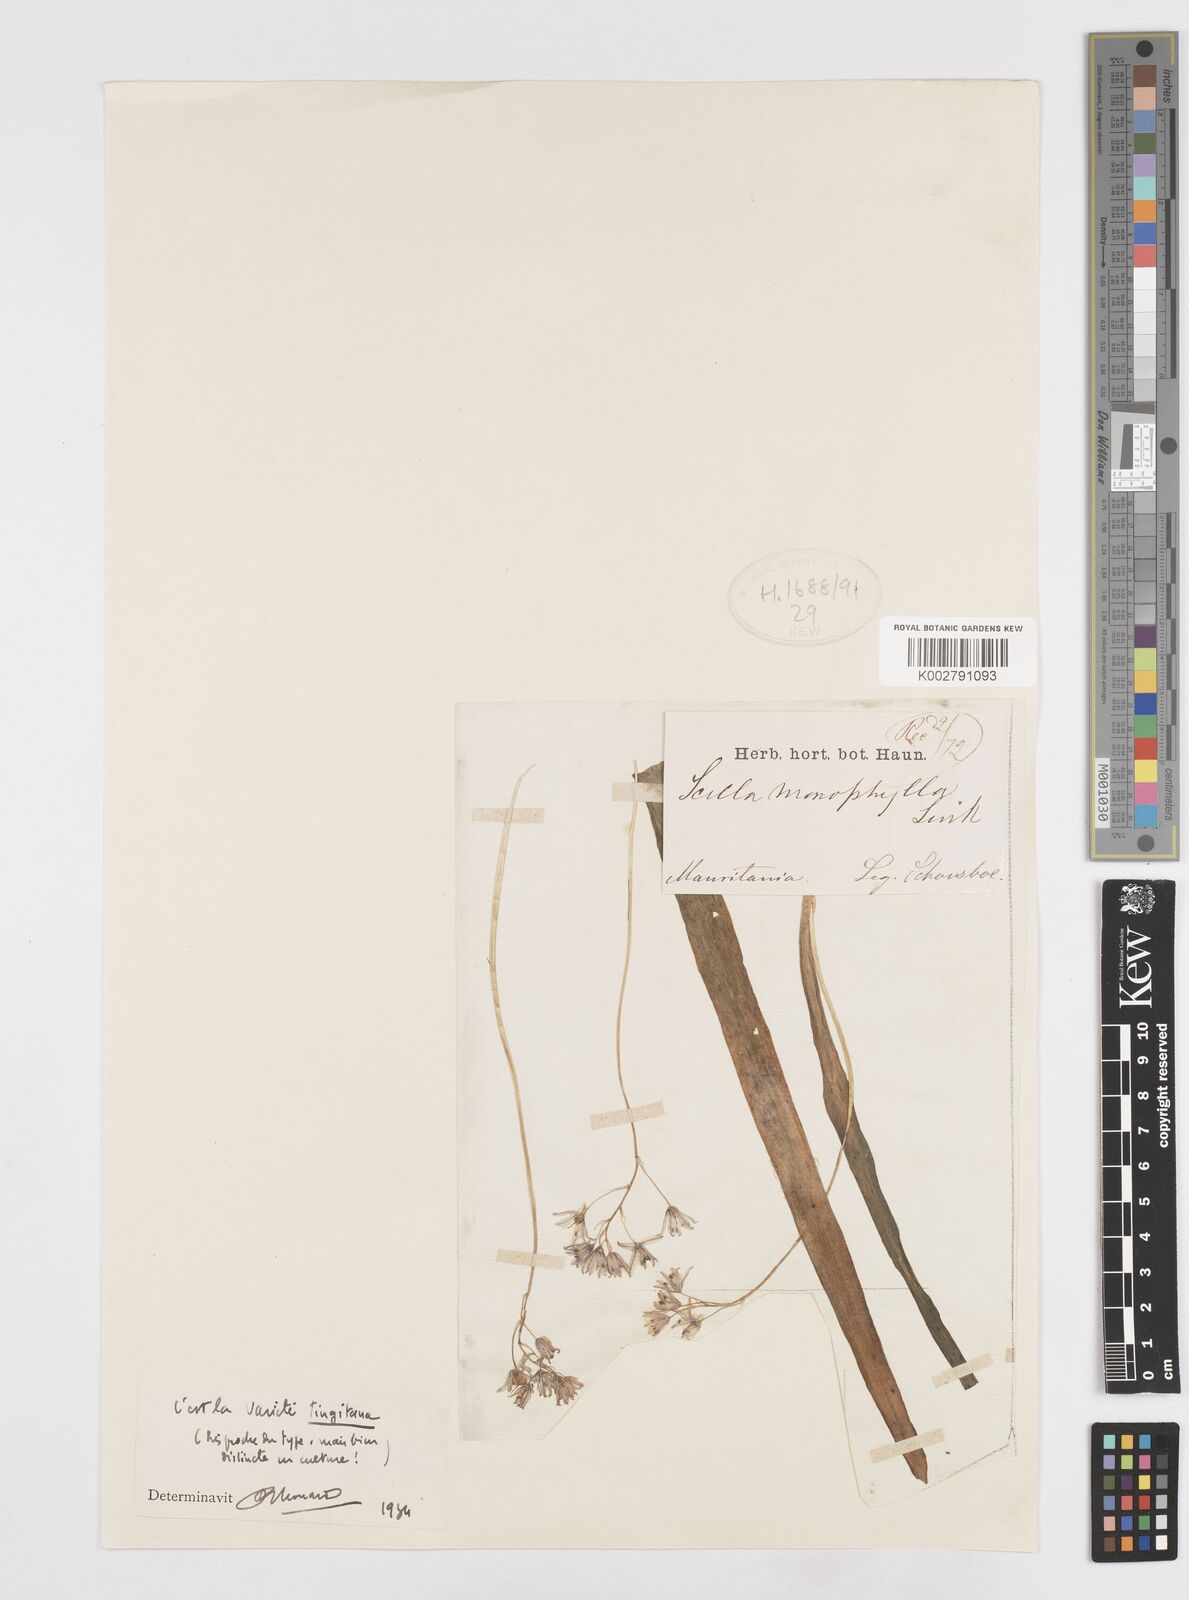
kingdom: Plantae
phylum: Tracheophyta
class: Liliopsida
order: Asparagales
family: Asparagaceae
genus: Scilla
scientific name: Scilla monophyllos
